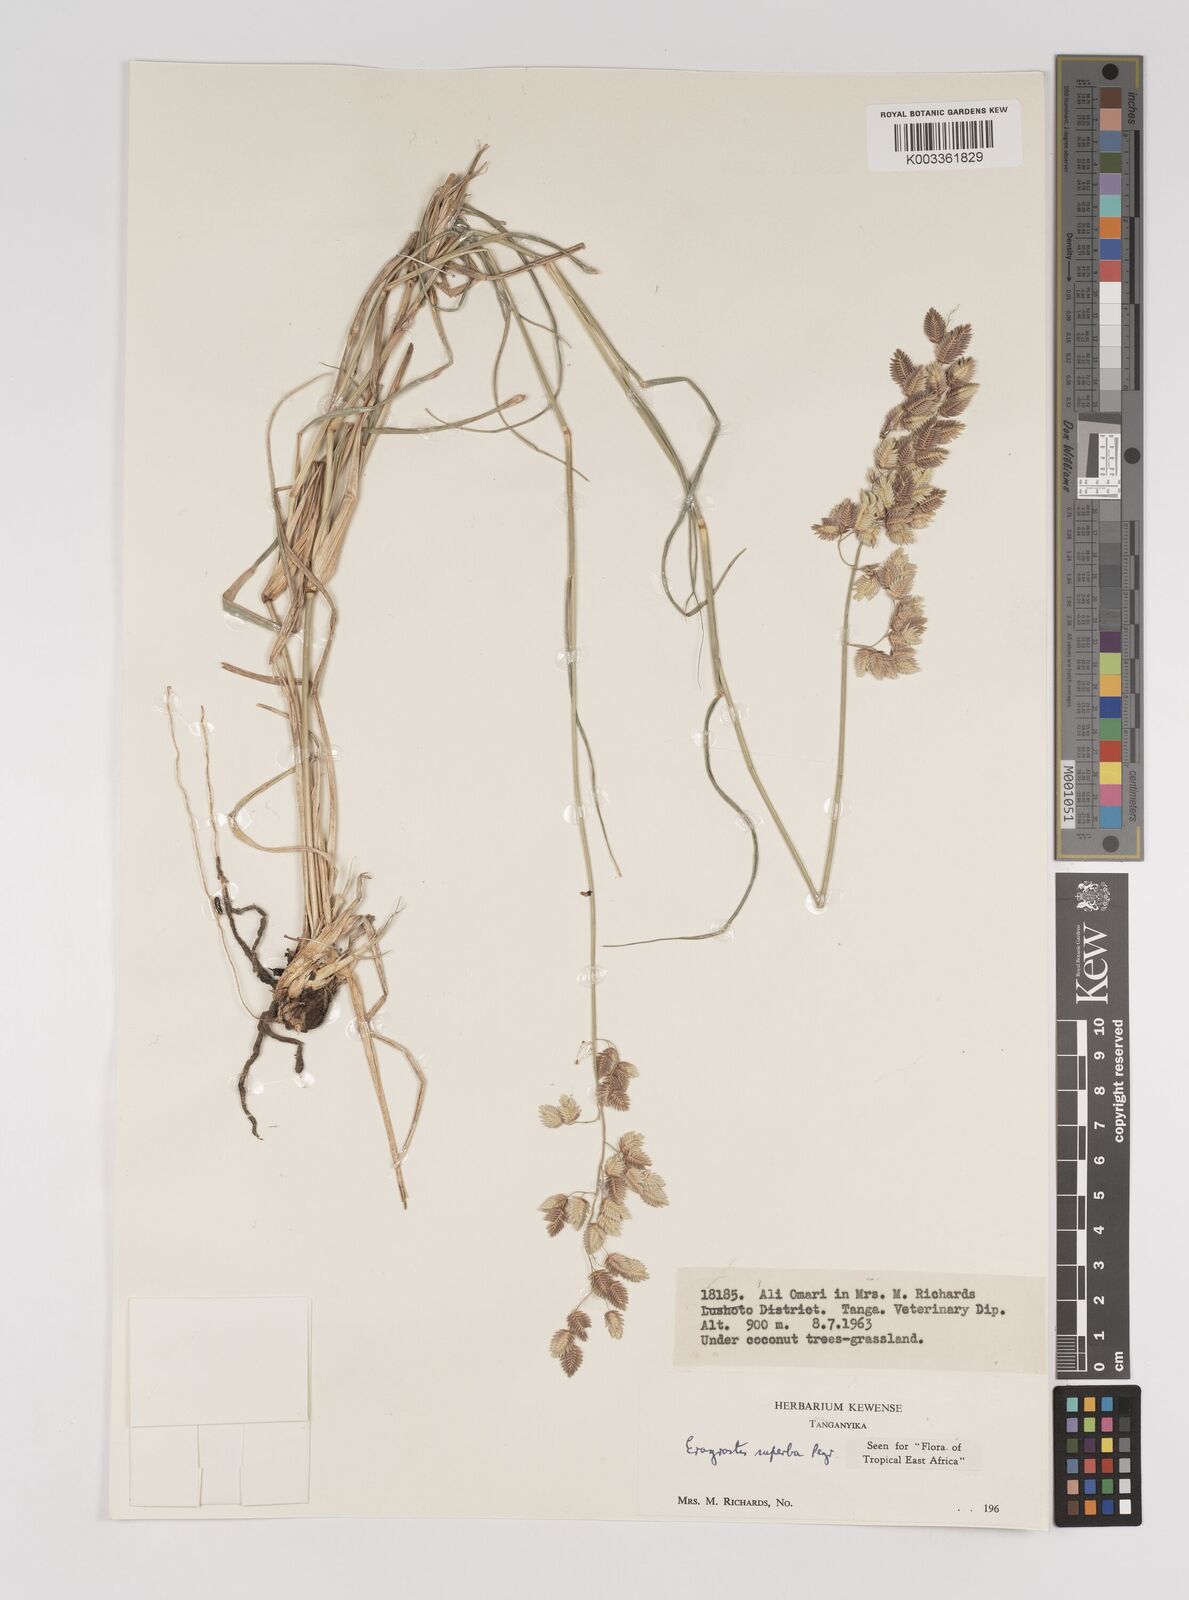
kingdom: Plantae
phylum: Tracheophyta
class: Liliopsida
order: Poales
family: Poaceae
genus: Eragrostis
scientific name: Eragrostis superba
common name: Wilman lovegrass
